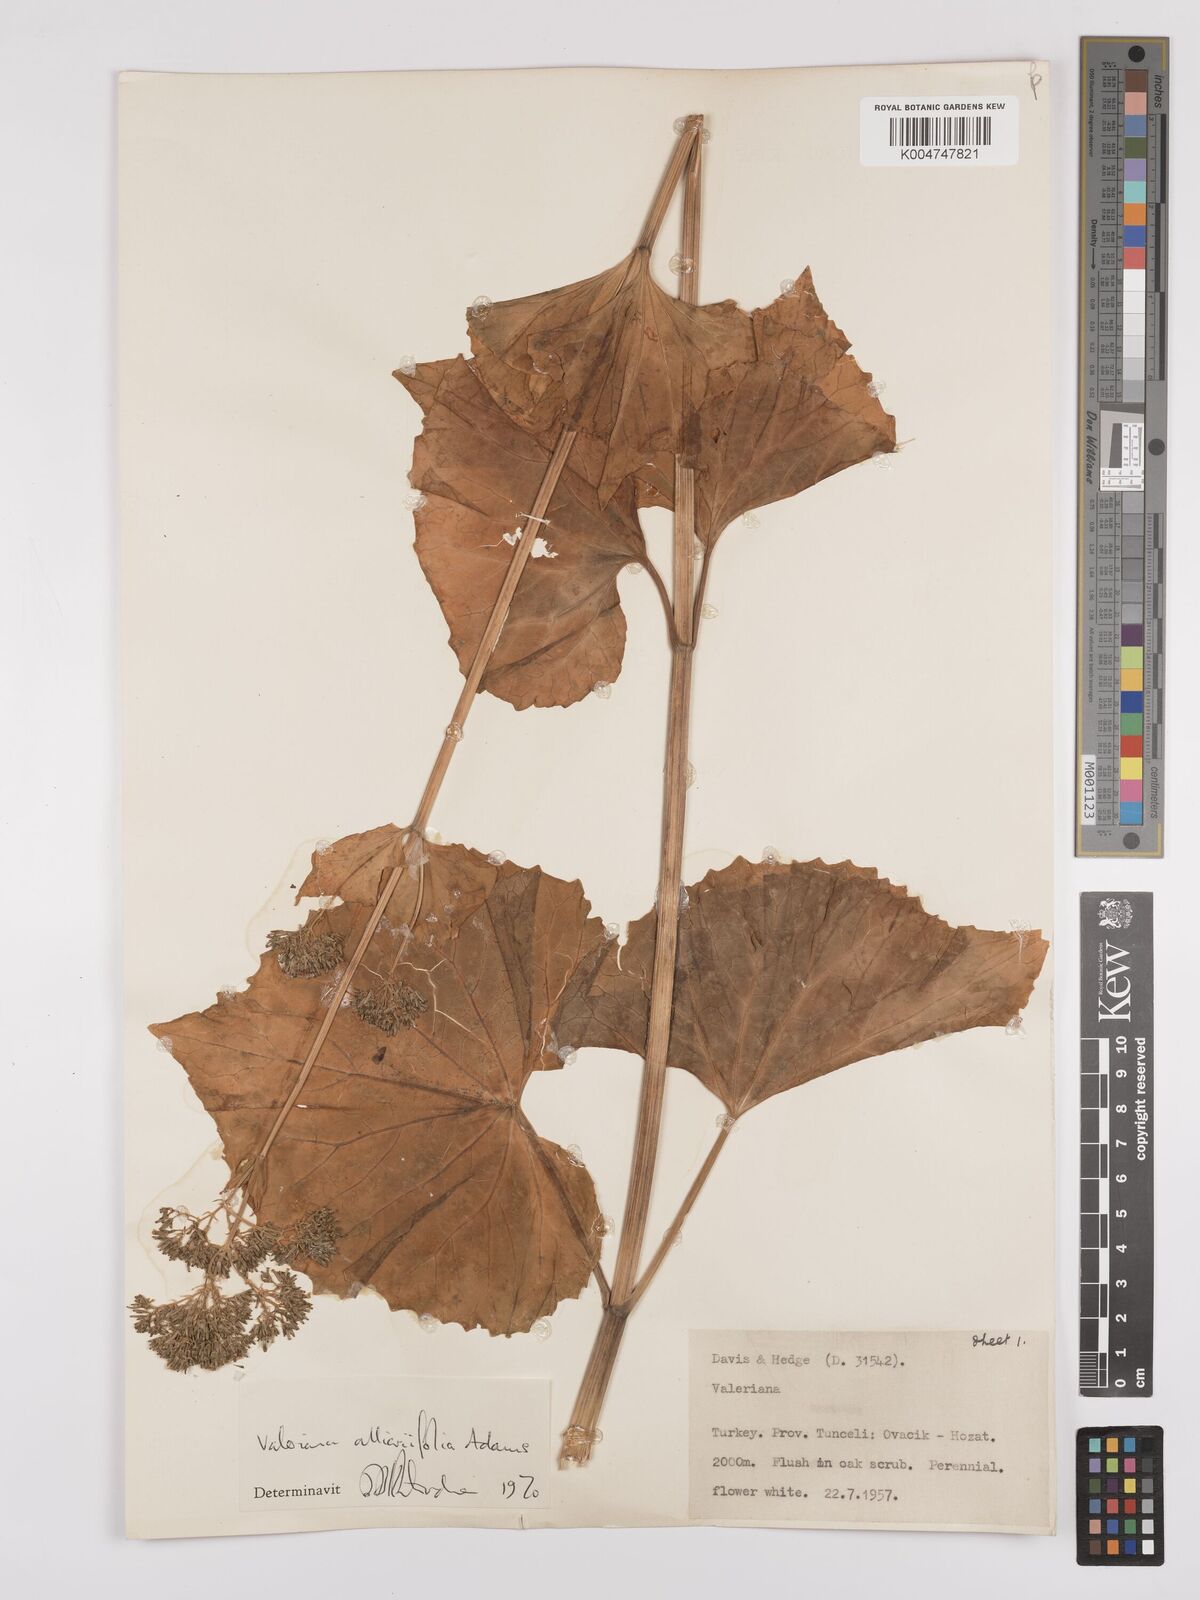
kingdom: Plantae
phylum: Tracheophyta
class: Magnoliopsida
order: Dipsacales
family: Caprifoliaceae
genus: Valeriana
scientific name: Valeriana
